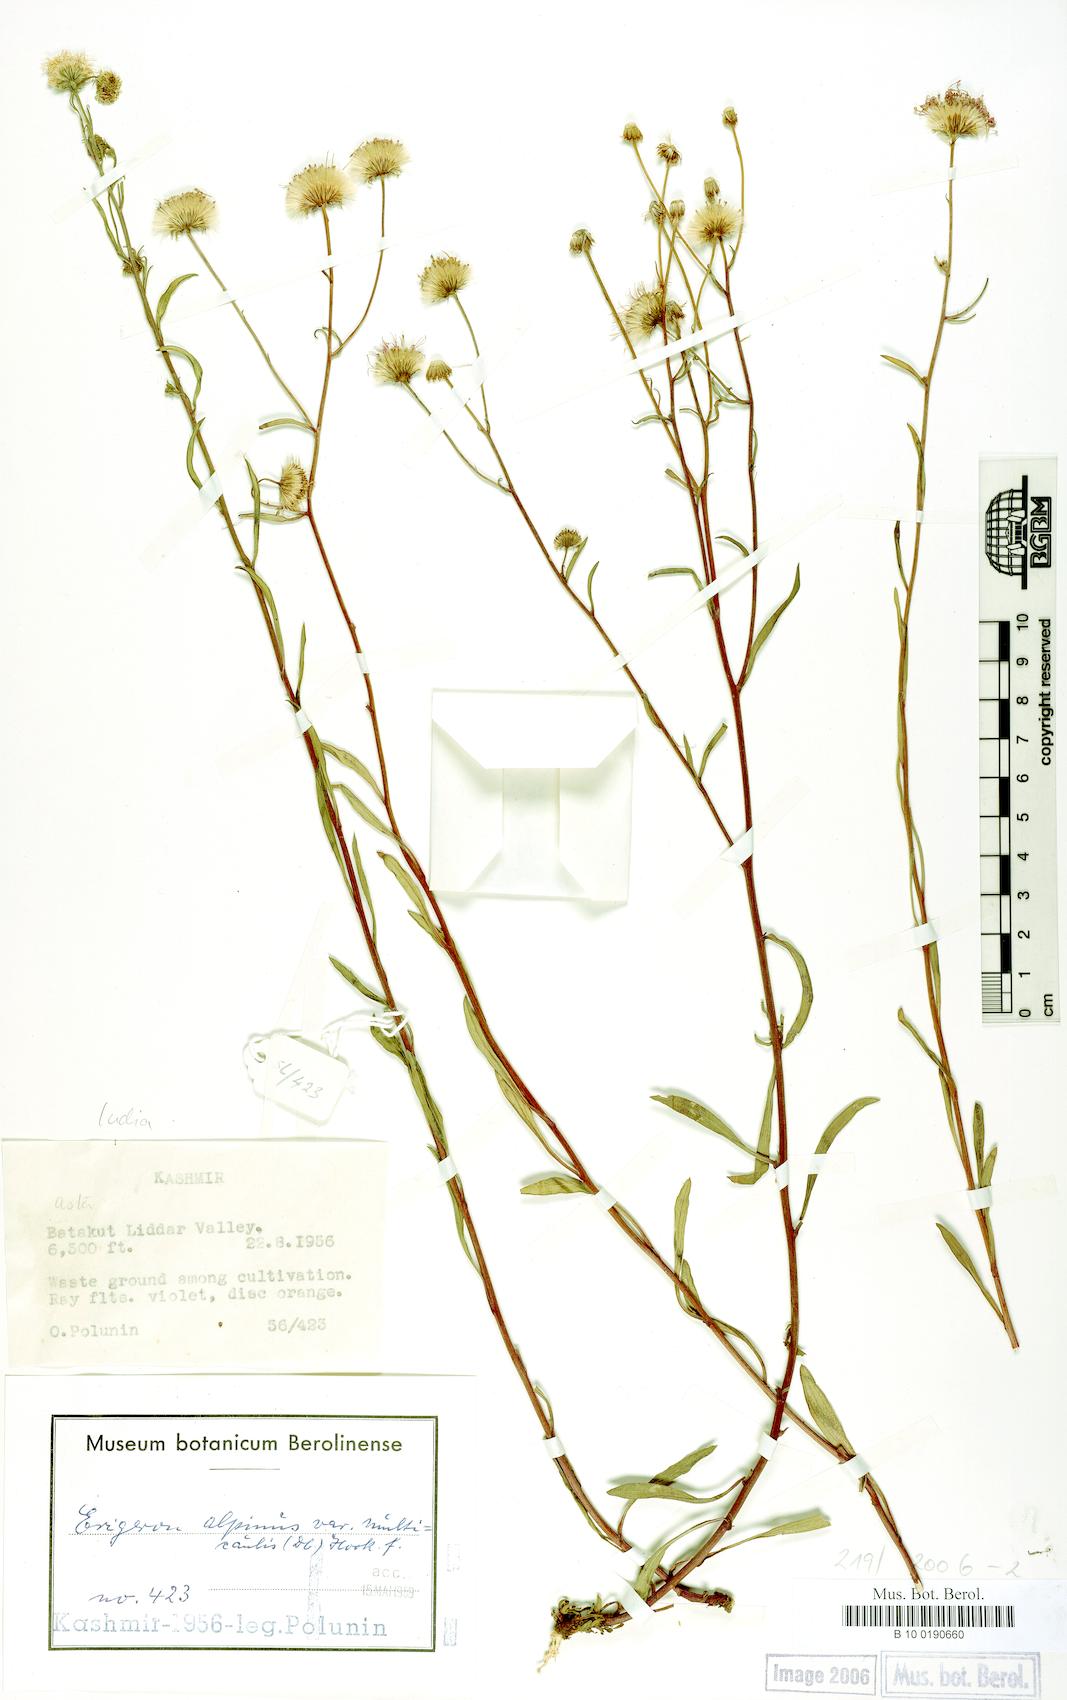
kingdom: Plantae
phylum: Tracheophyta
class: Magnoliopsida
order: Asterales
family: Asteraceae
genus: Erigeron
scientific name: Erigeron acris
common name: Blue fleabane
